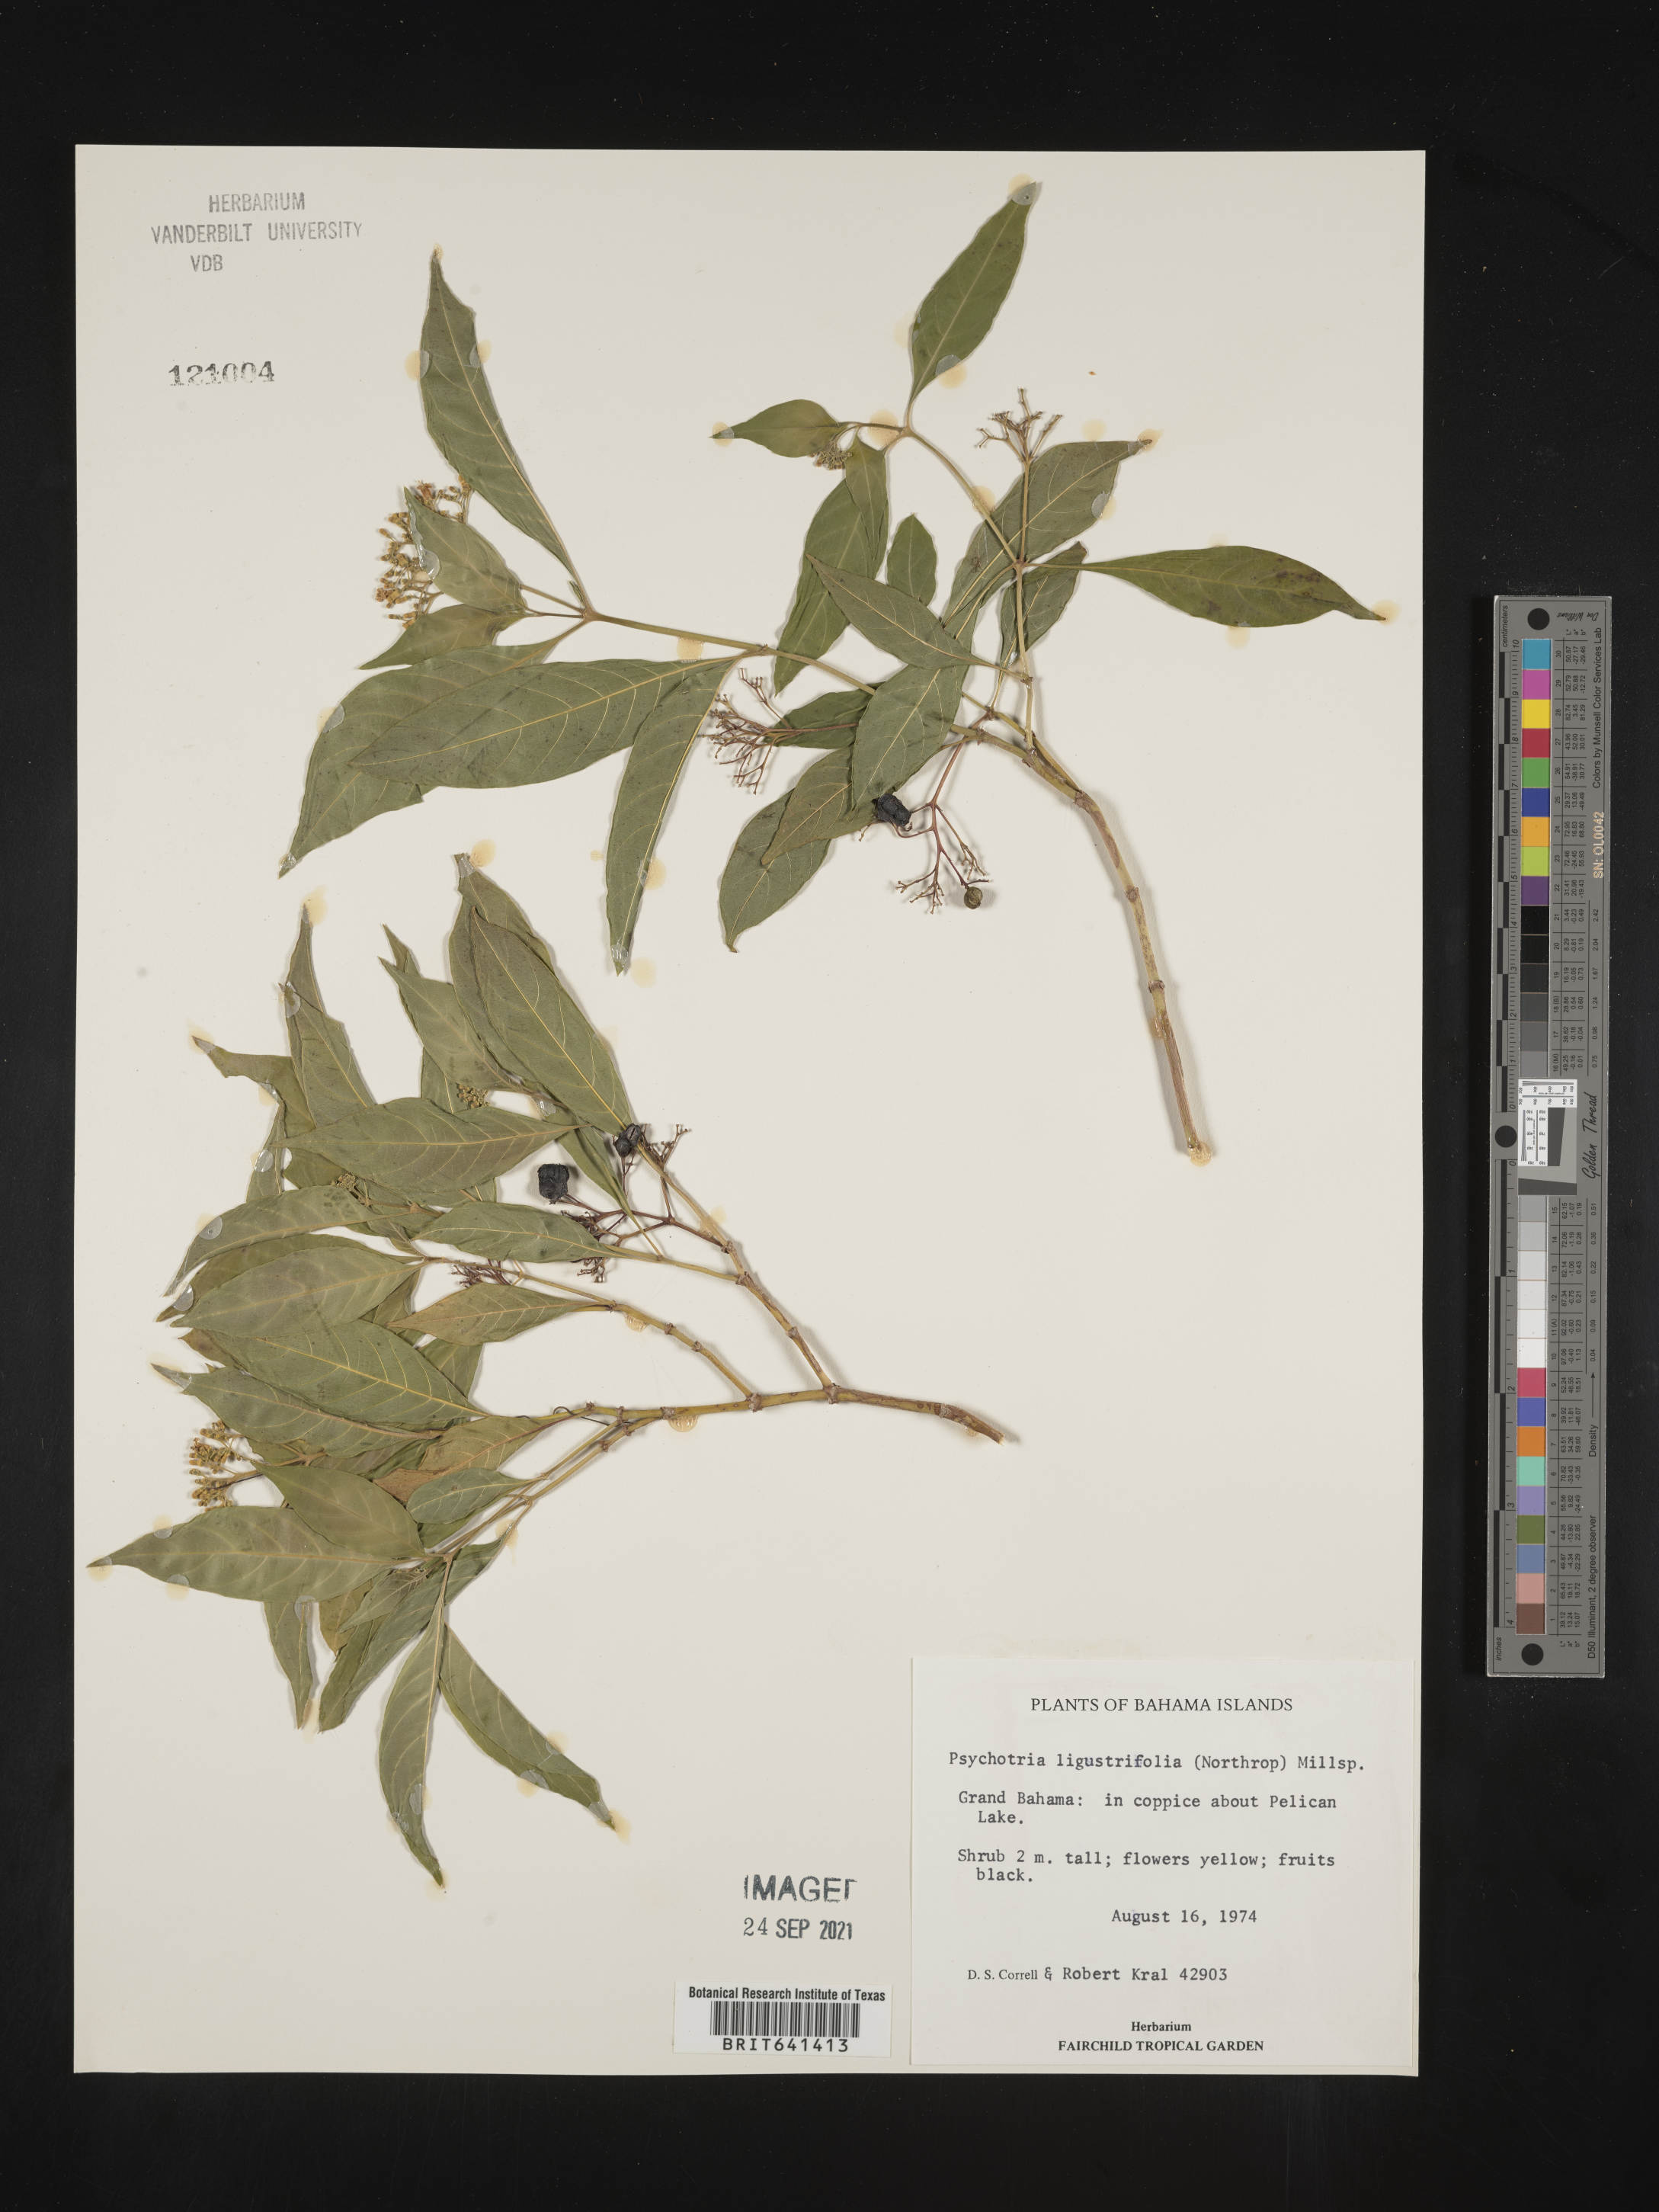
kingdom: Plantae
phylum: Tracheophyta
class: Magnoliopsida
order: Gentianales
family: Rubiaceae
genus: Psychotria
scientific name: Psychotria
